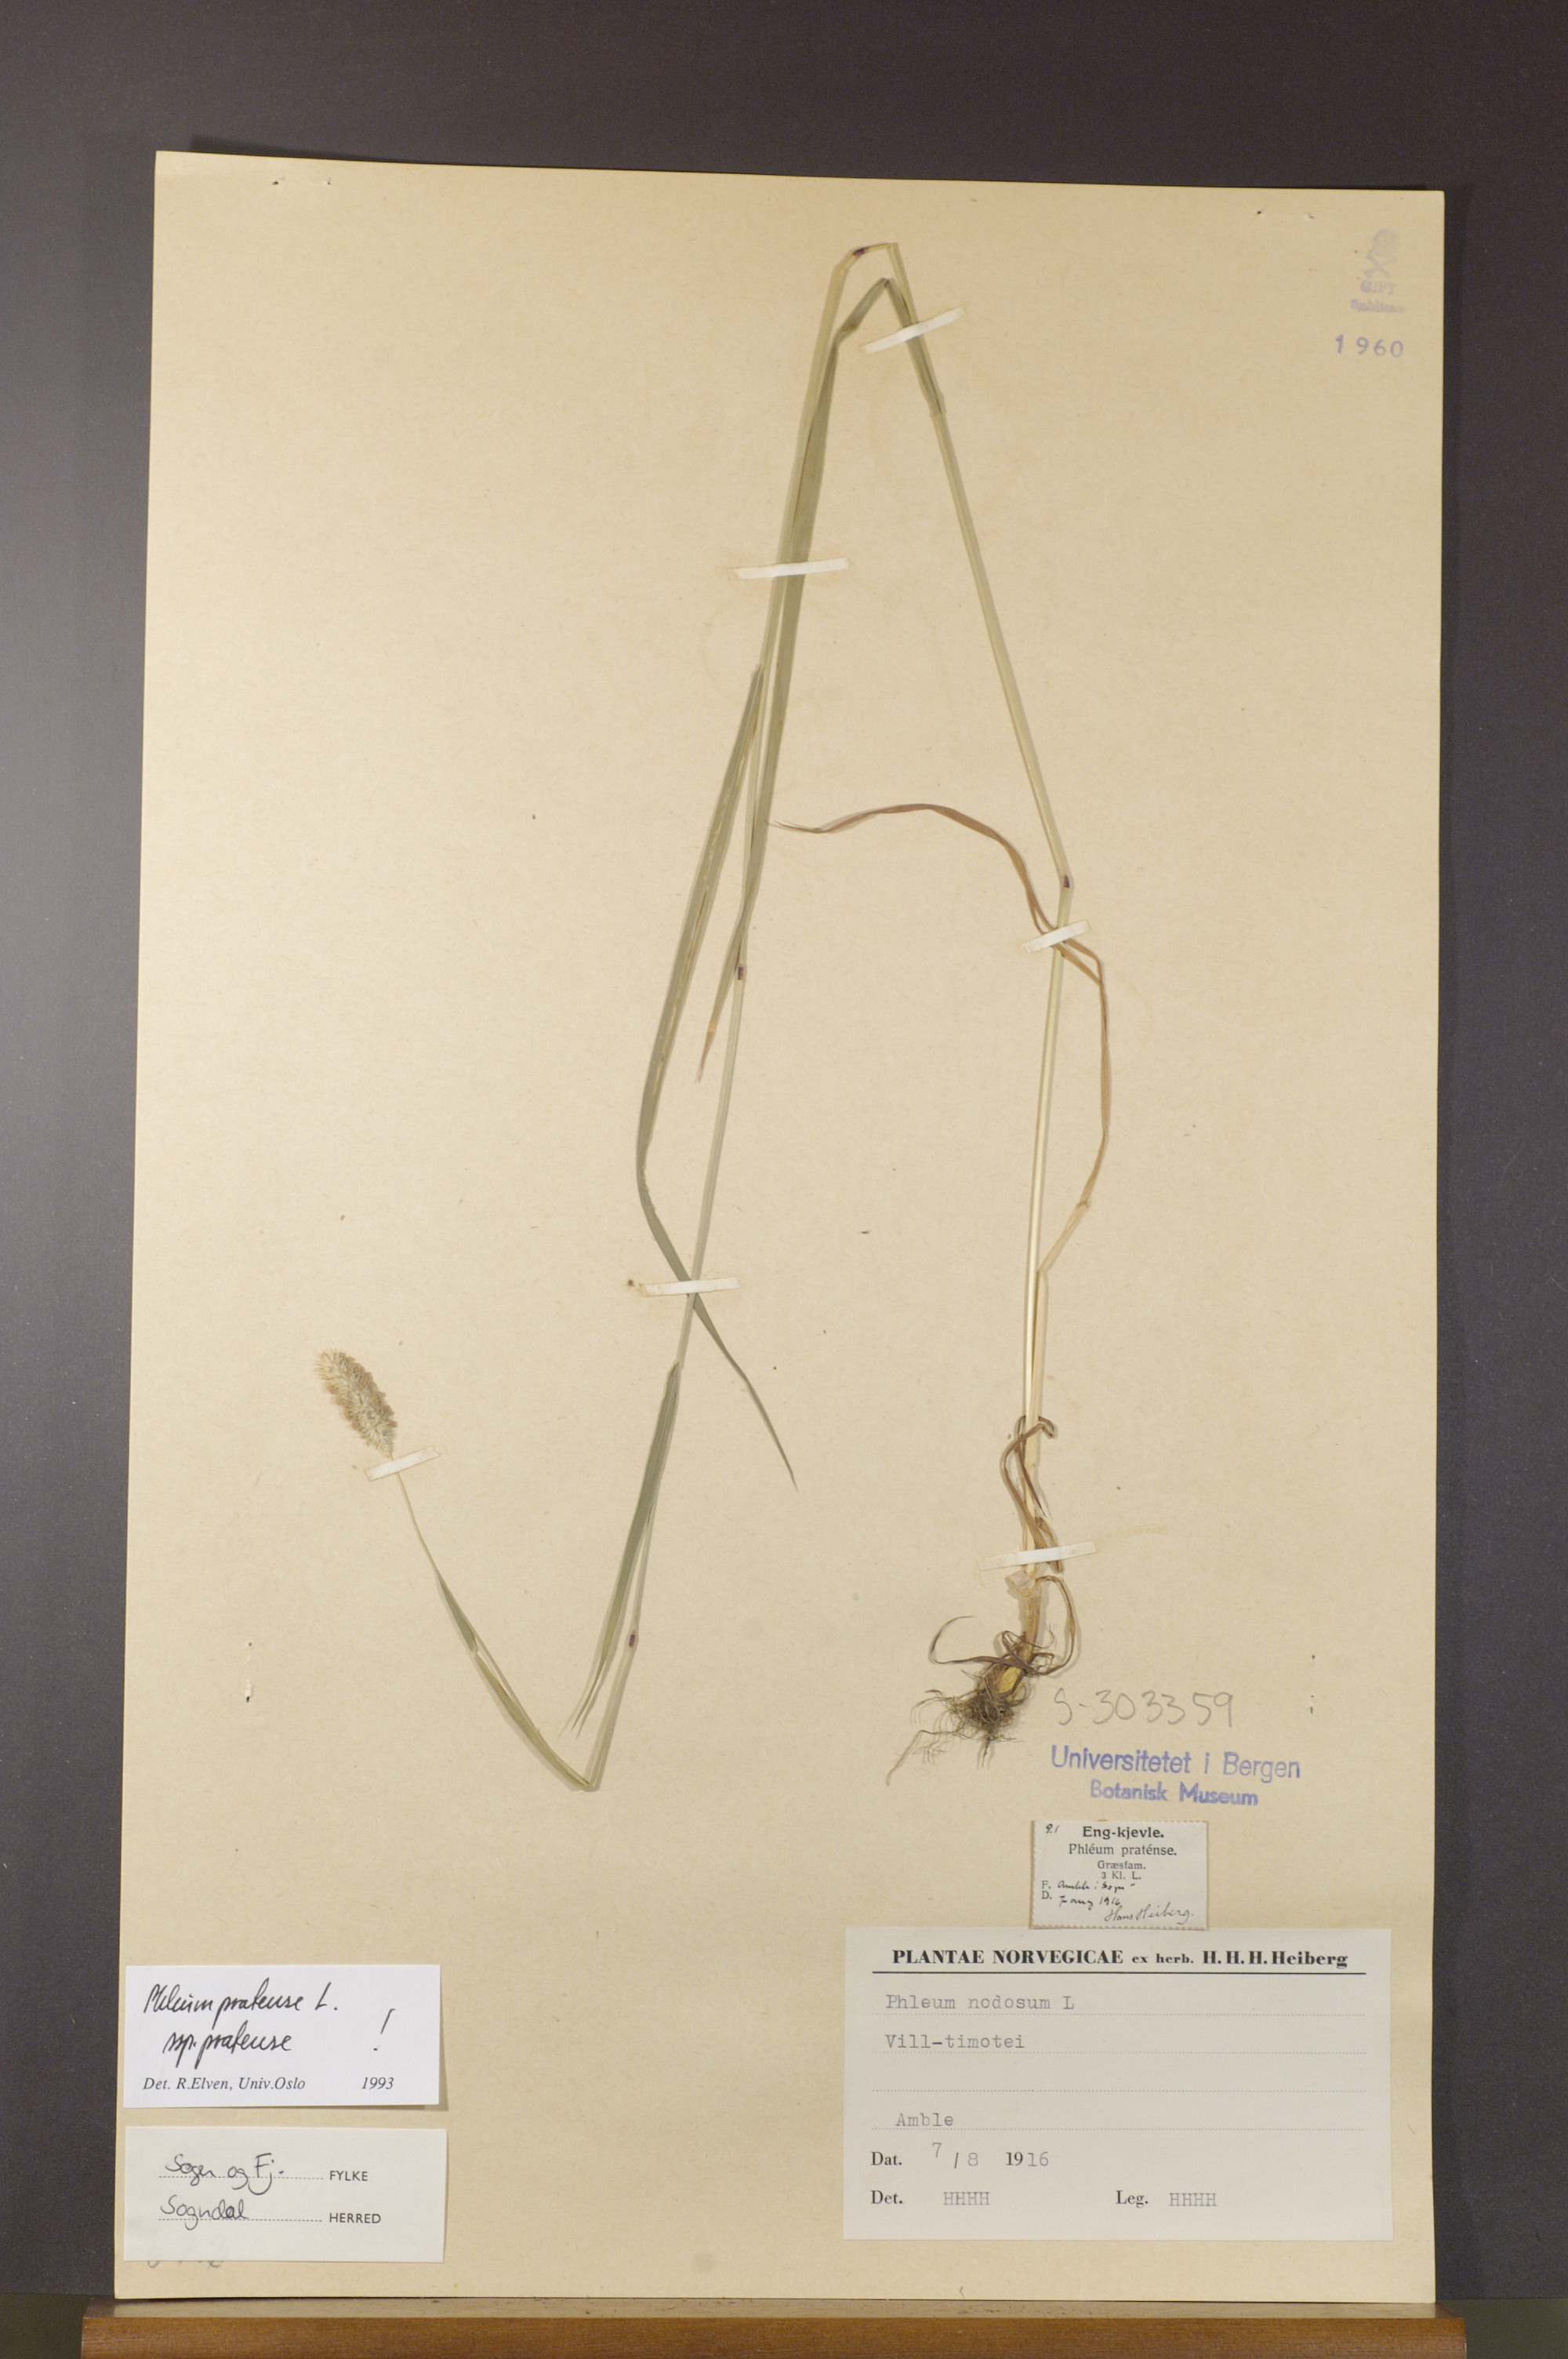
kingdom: Plantae
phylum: Tracheophyta
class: Liliopsida
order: Poales
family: Poaceae
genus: Phleum
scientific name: Phleum pratense
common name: Timothy grass
